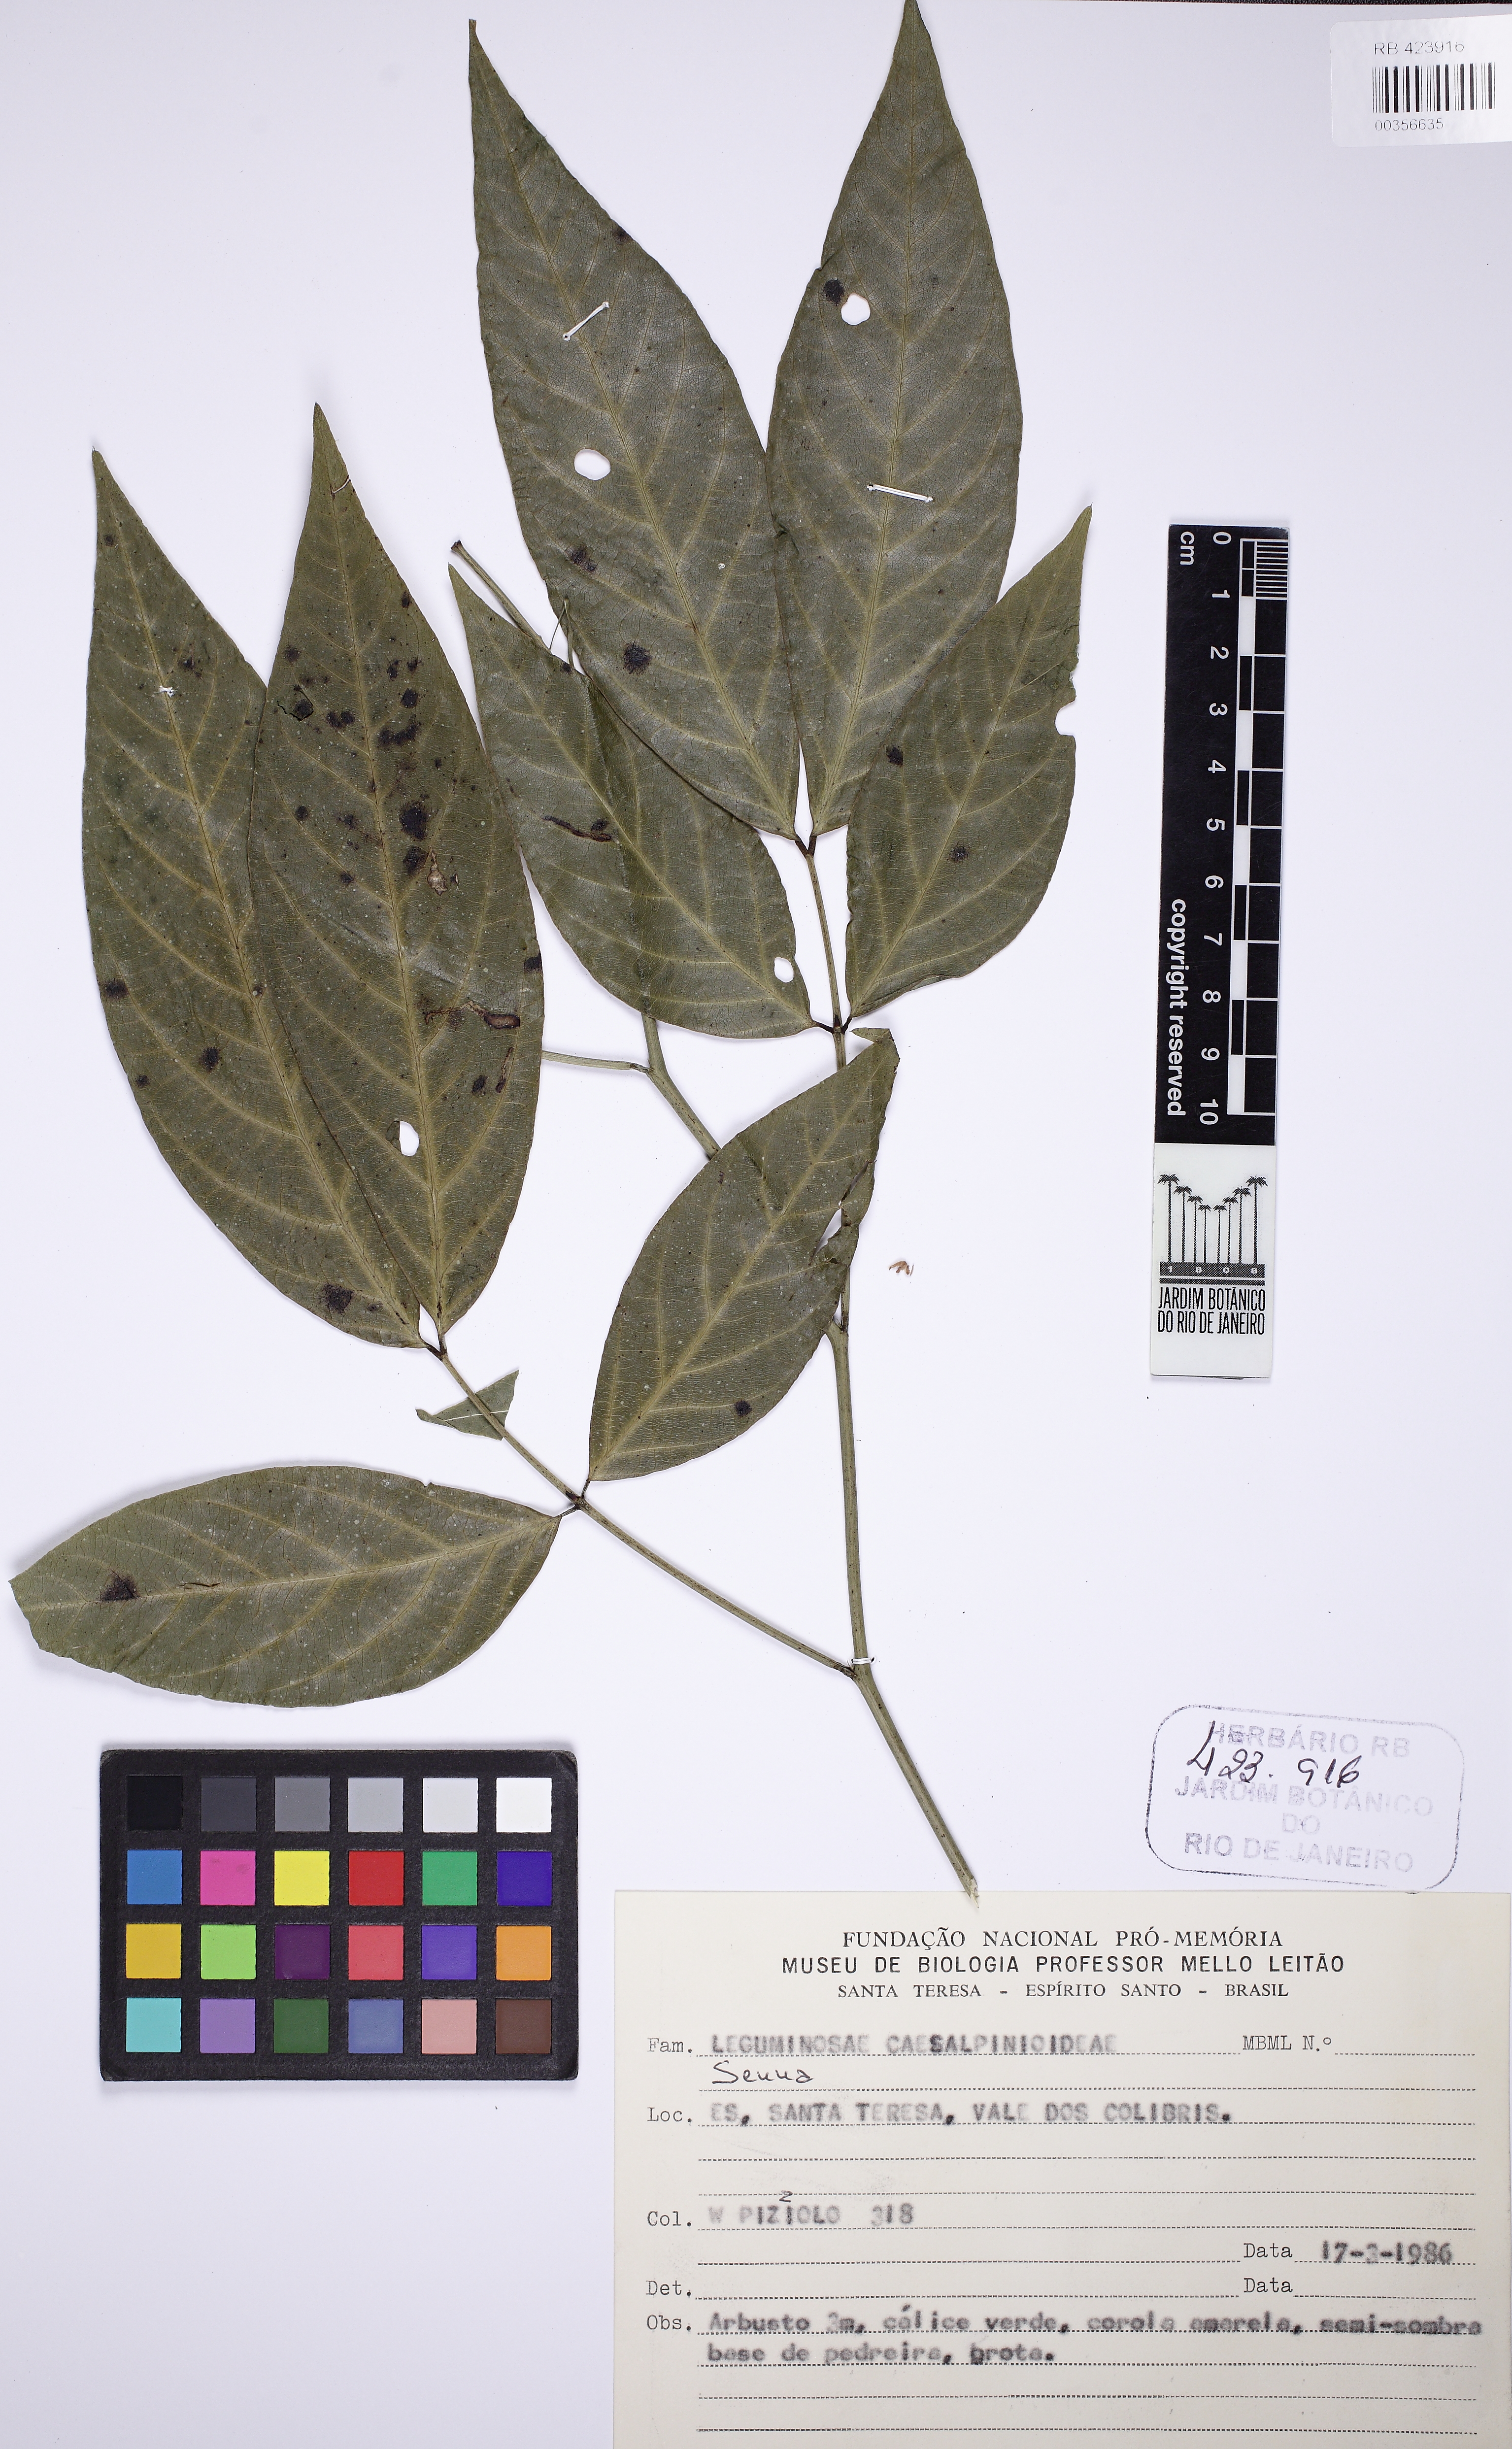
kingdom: Plantae
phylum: Tracheophyta
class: Magnoliopsida
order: Fabales
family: Fabaceae
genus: Senna
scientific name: Senna affinis
